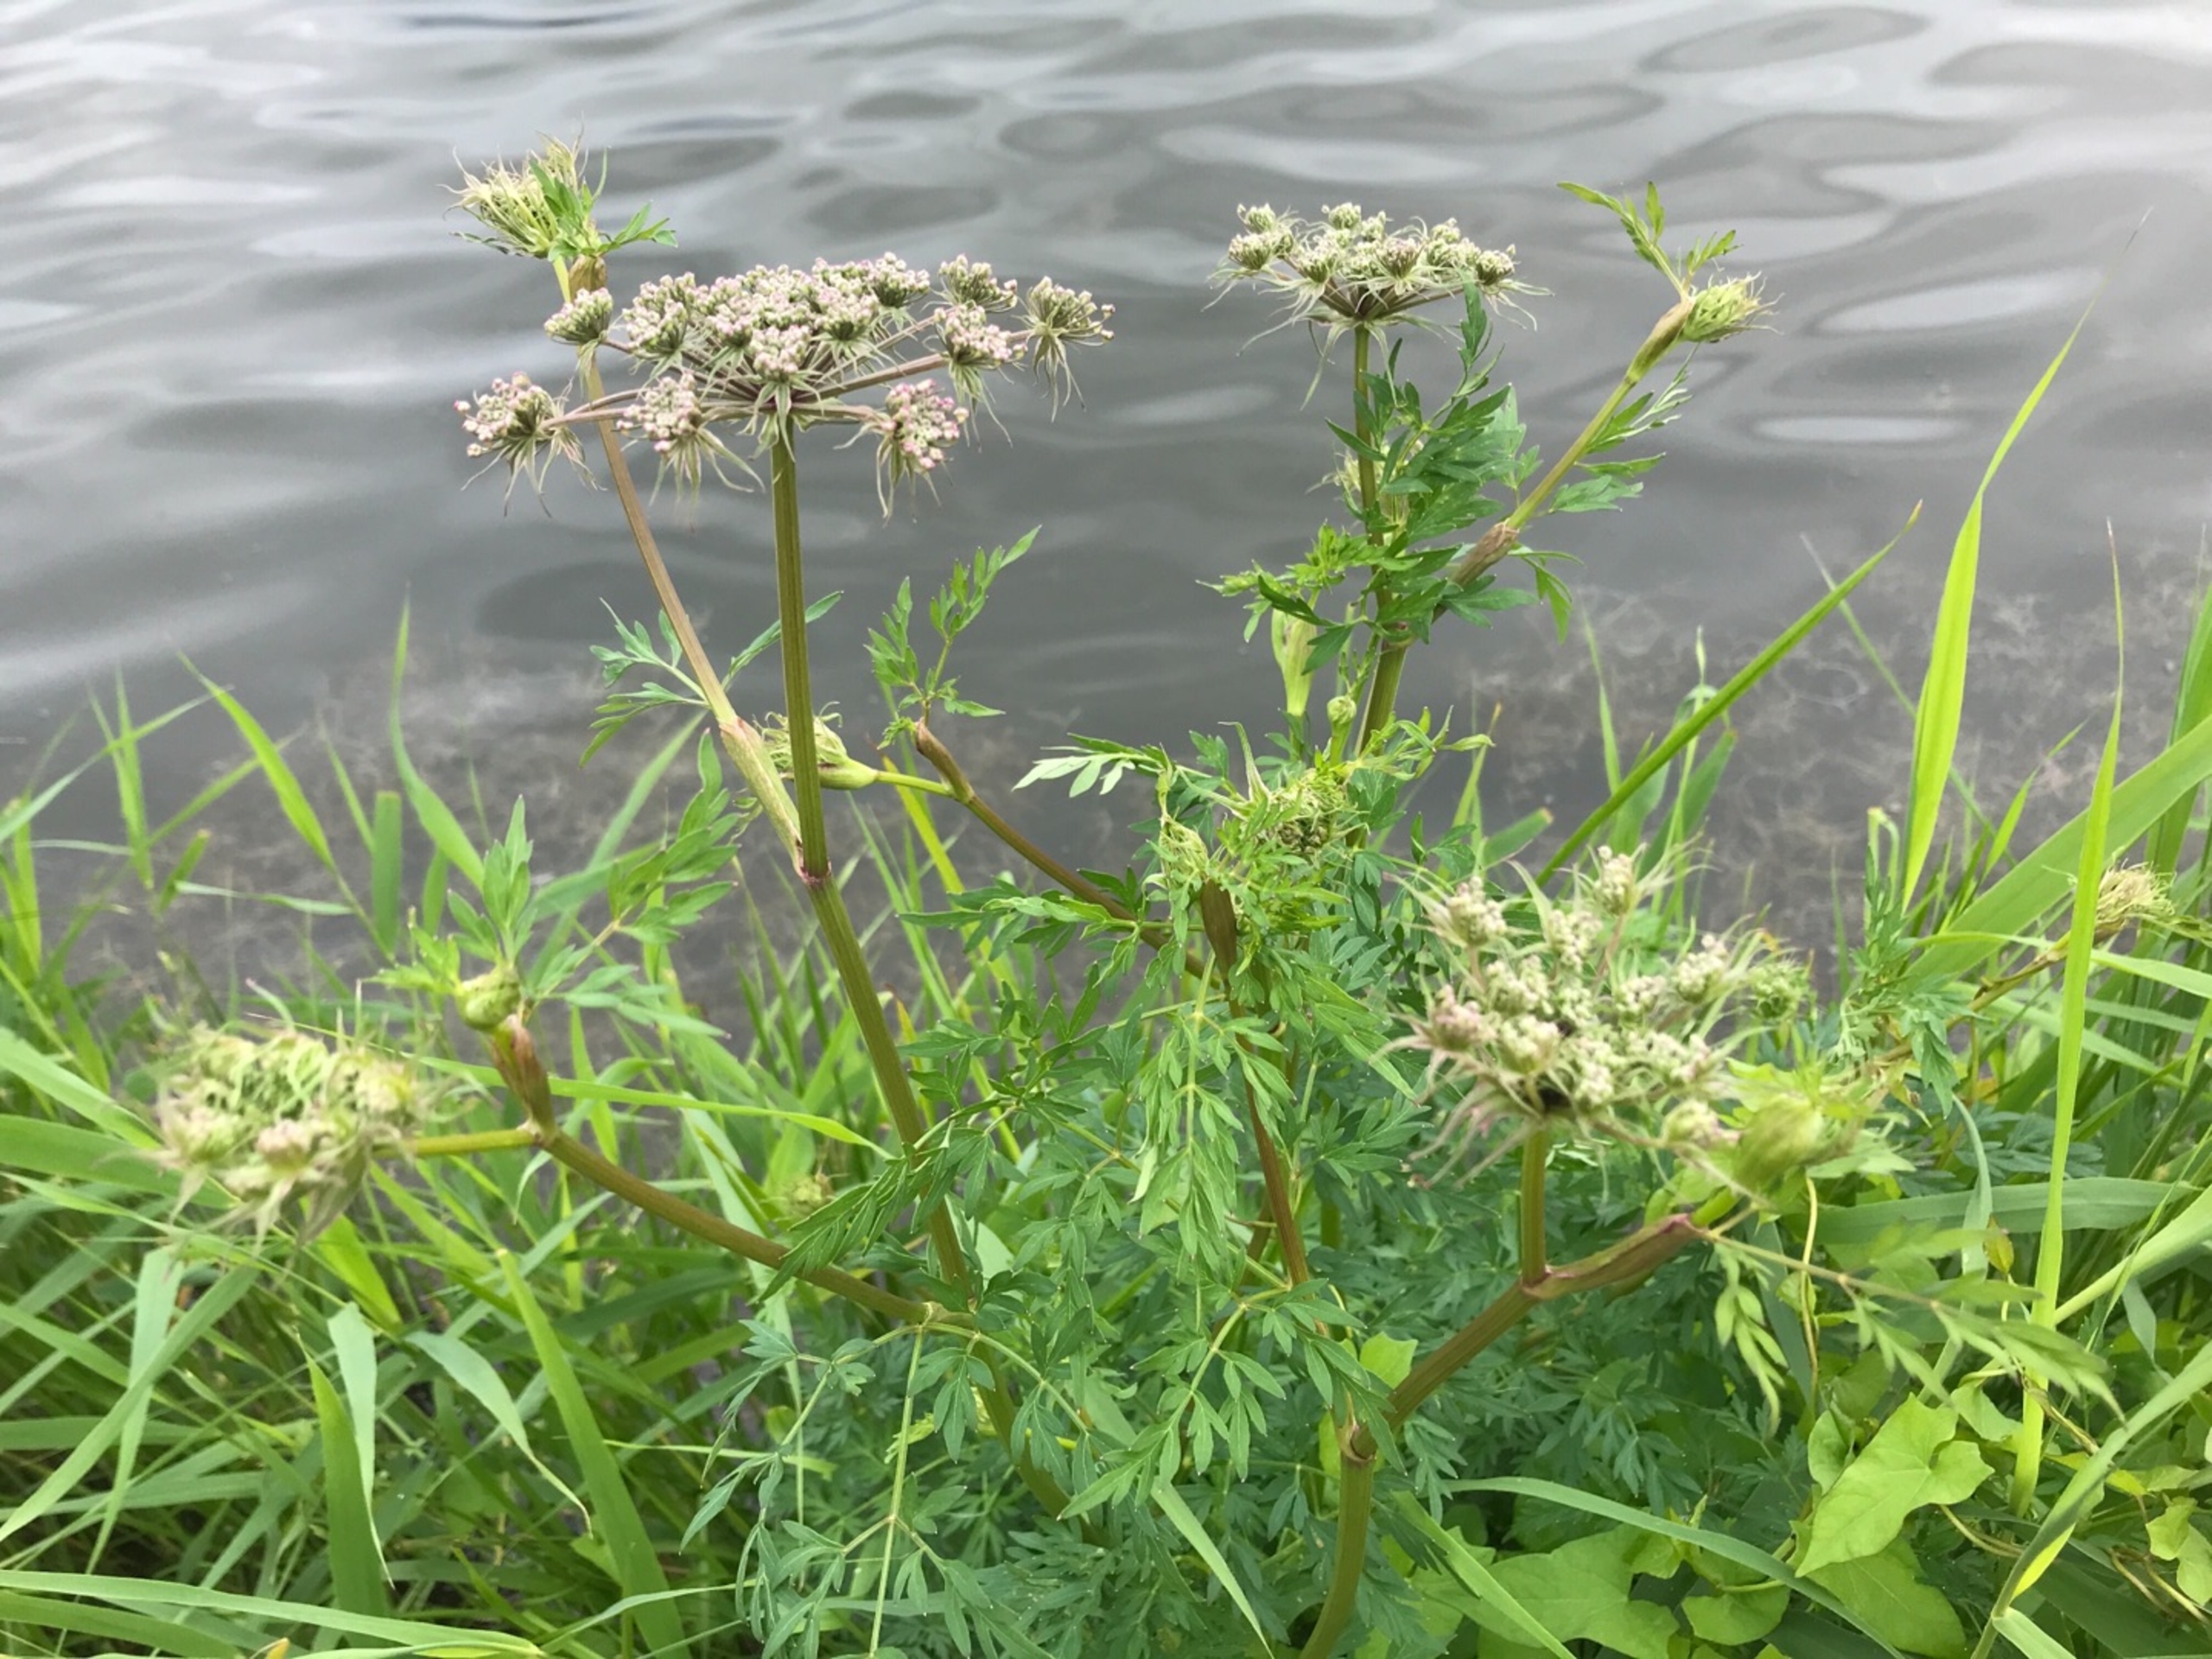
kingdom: Plantae
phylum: Tracheophyta
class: Magnoliopsida
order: Apiales
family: Apiaceae
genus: Thysselinum
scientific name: Thysselinum palustre
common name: Kær-svovlrod
